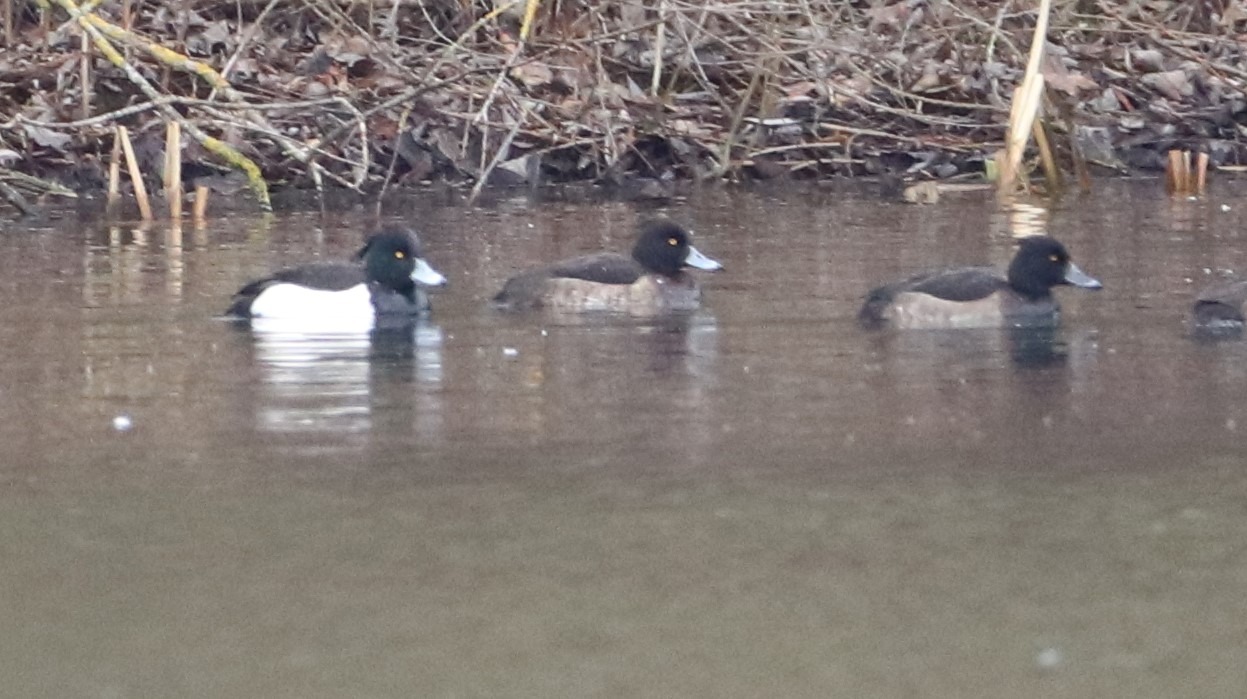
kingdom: Animalia
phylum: Chordata
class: Aves
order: Anseriformes
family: Anatidae
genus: Aythya
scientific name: Aythya fuligula
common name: Troldand
